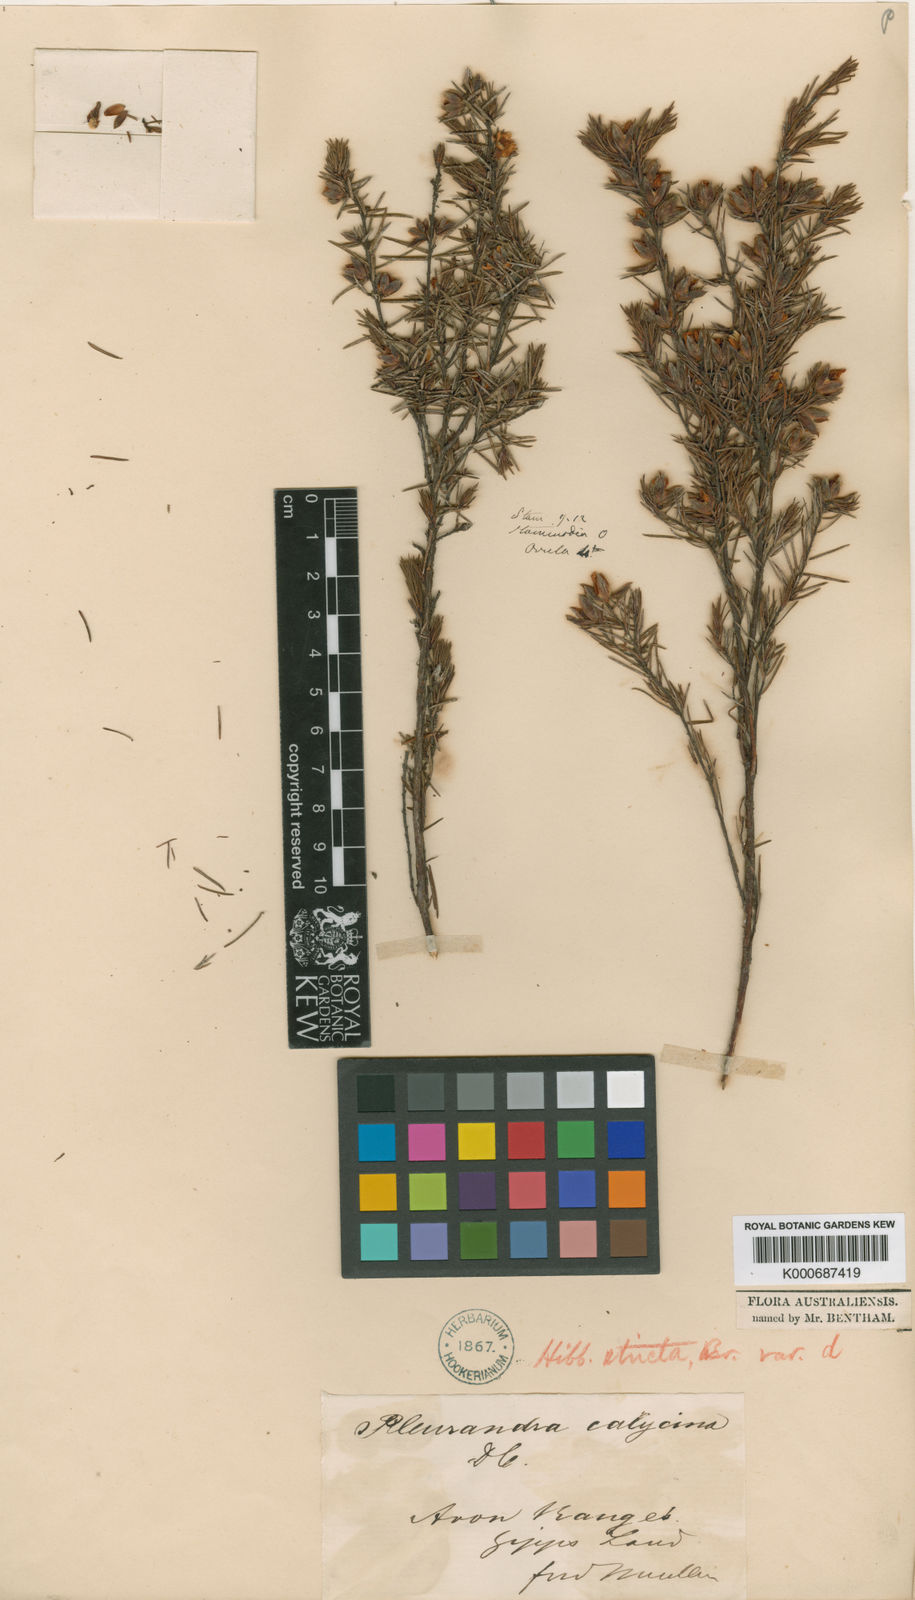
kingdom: Plantae
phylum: Tracheophyta
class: Magnoliopsida
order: Dilleniales
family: Dilleniaceae
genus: Hibbertia
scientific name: Hibbertia calycina
